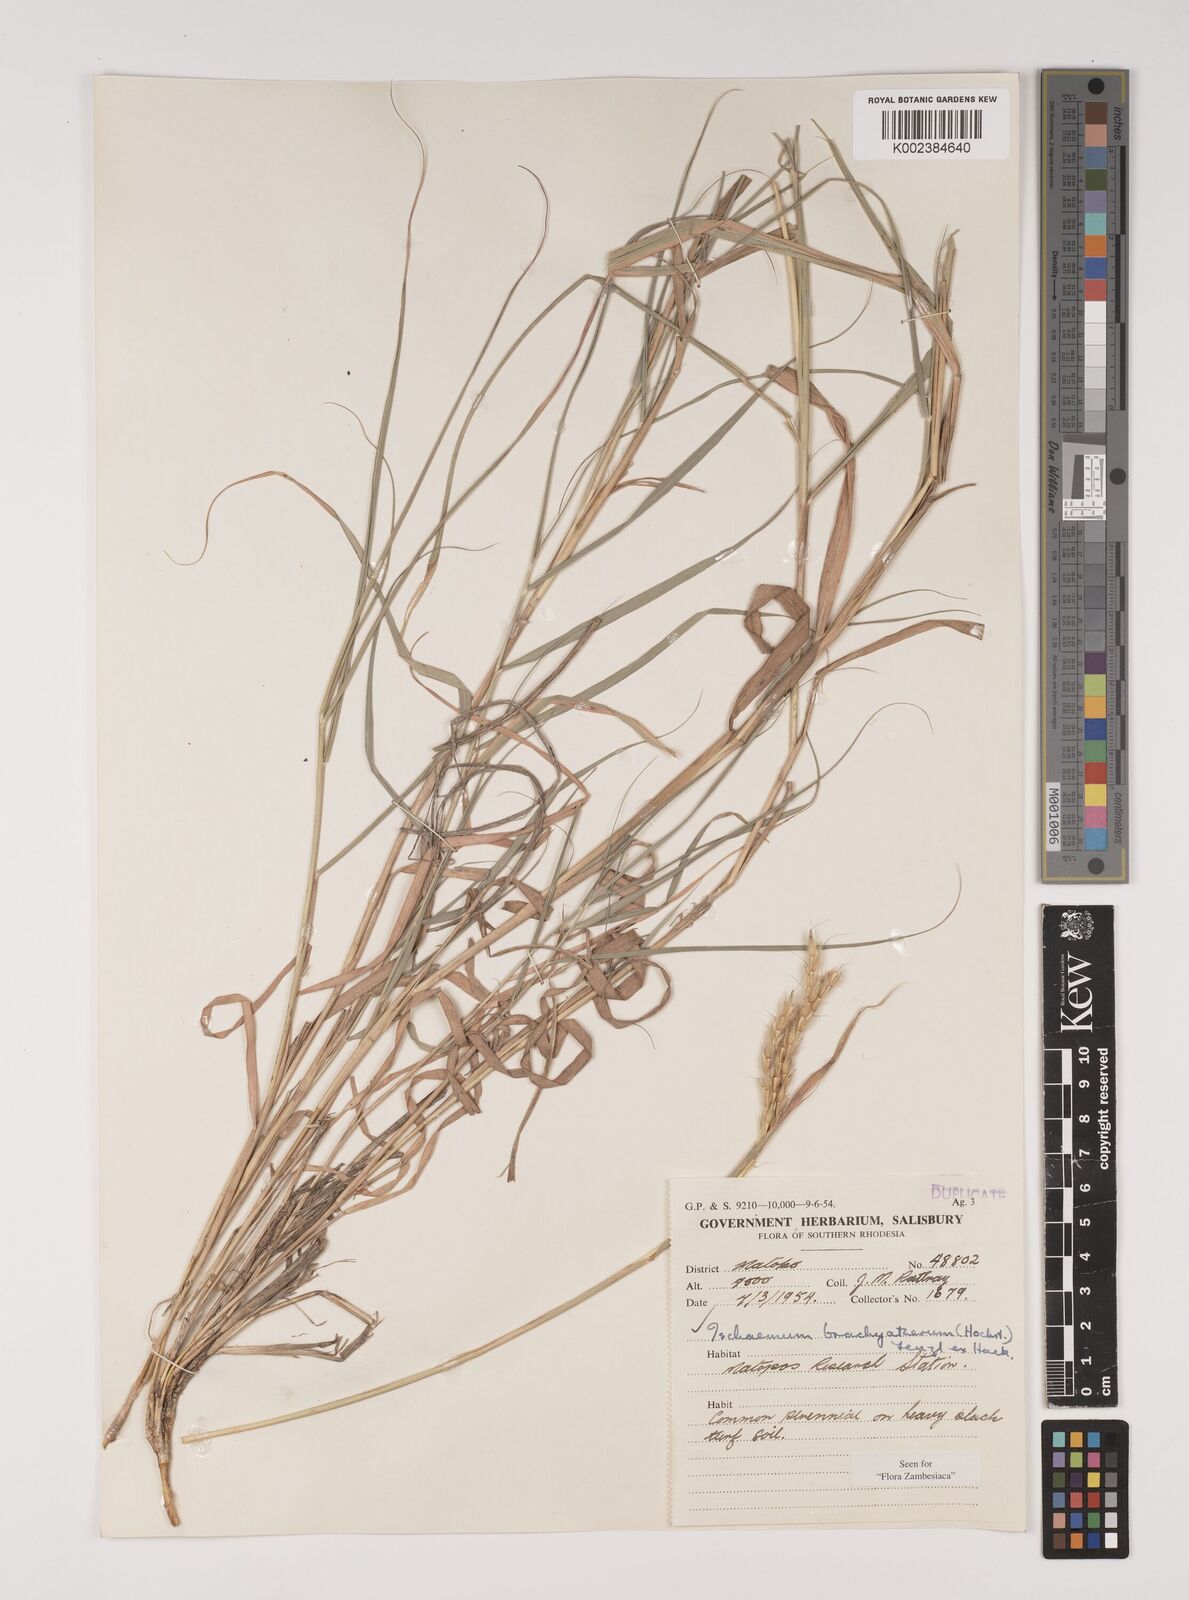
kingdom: Plantae
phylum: Tracheophyta
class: Liliopsida
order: Poales
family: Poaceae
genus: Ischaemum
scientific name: Ischaemum afrum
